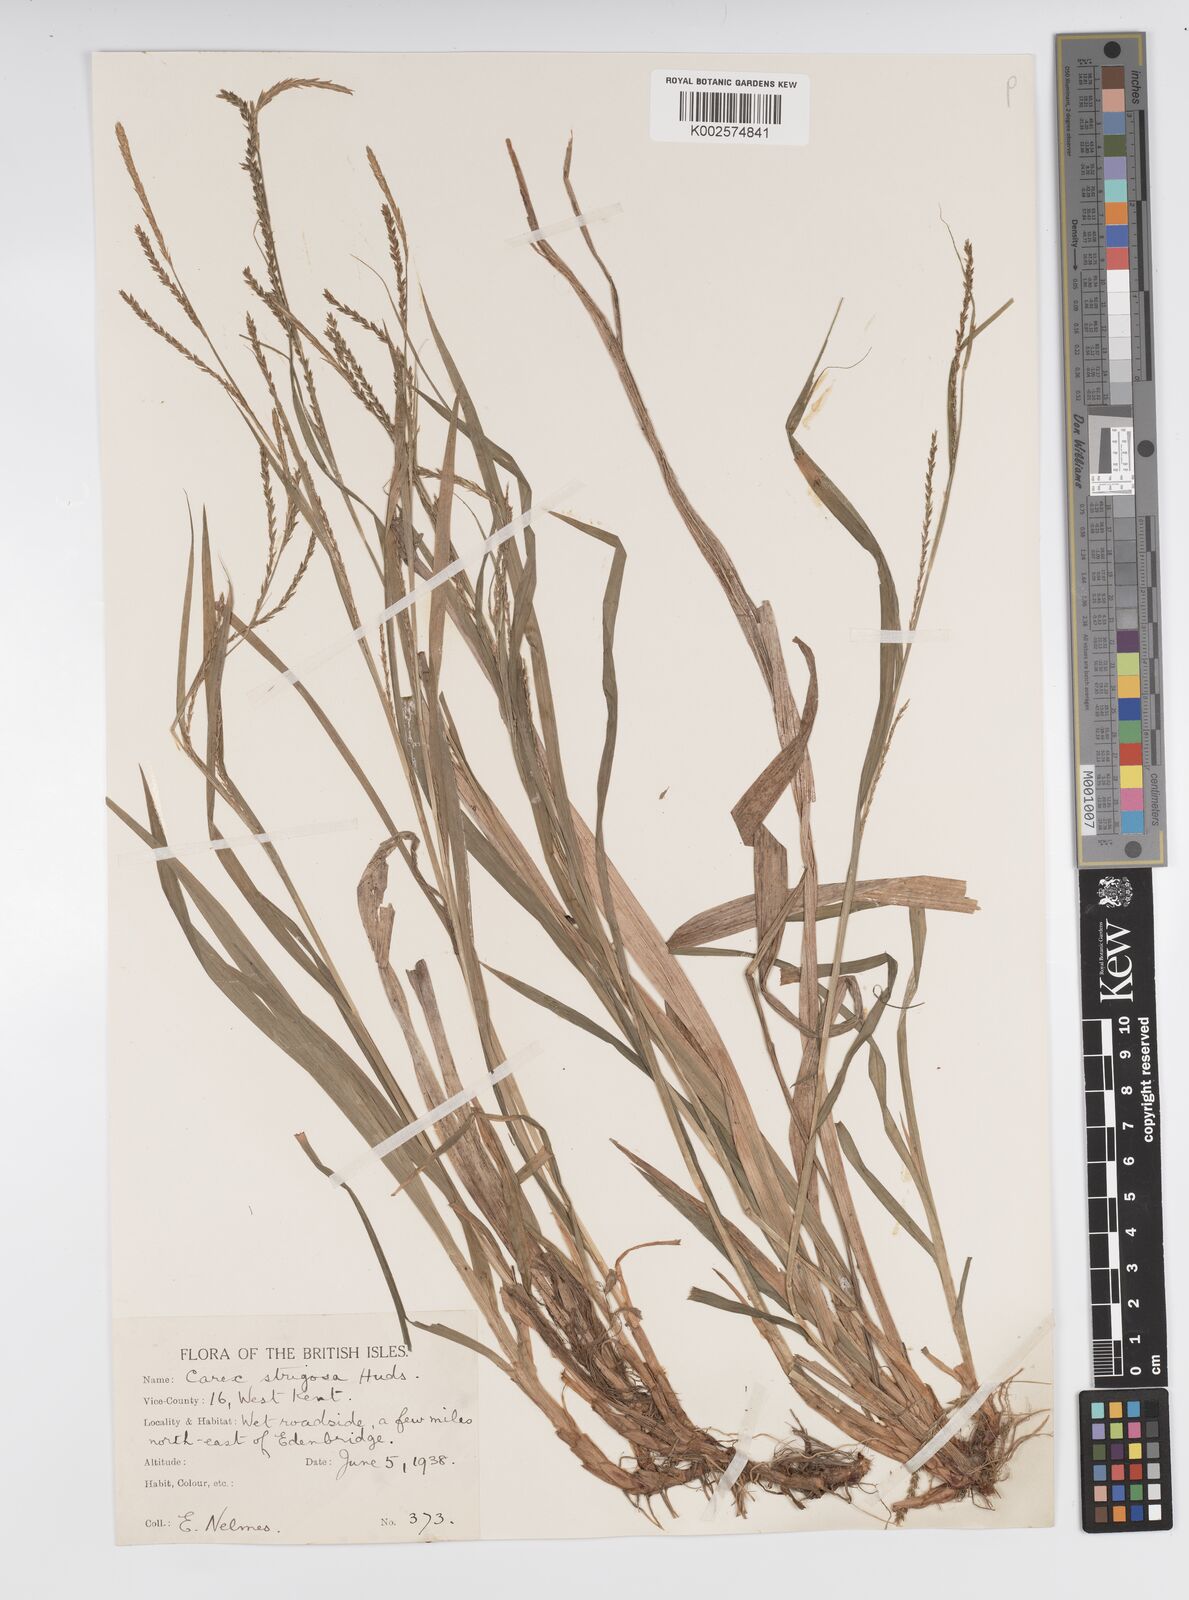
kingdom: Plantae
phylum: Tracheophyta
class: Liliopsida
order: Poales
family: Cyperaceae
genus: Carex
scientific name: Carex strigosa
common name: Thin-spiked wood-sedge
